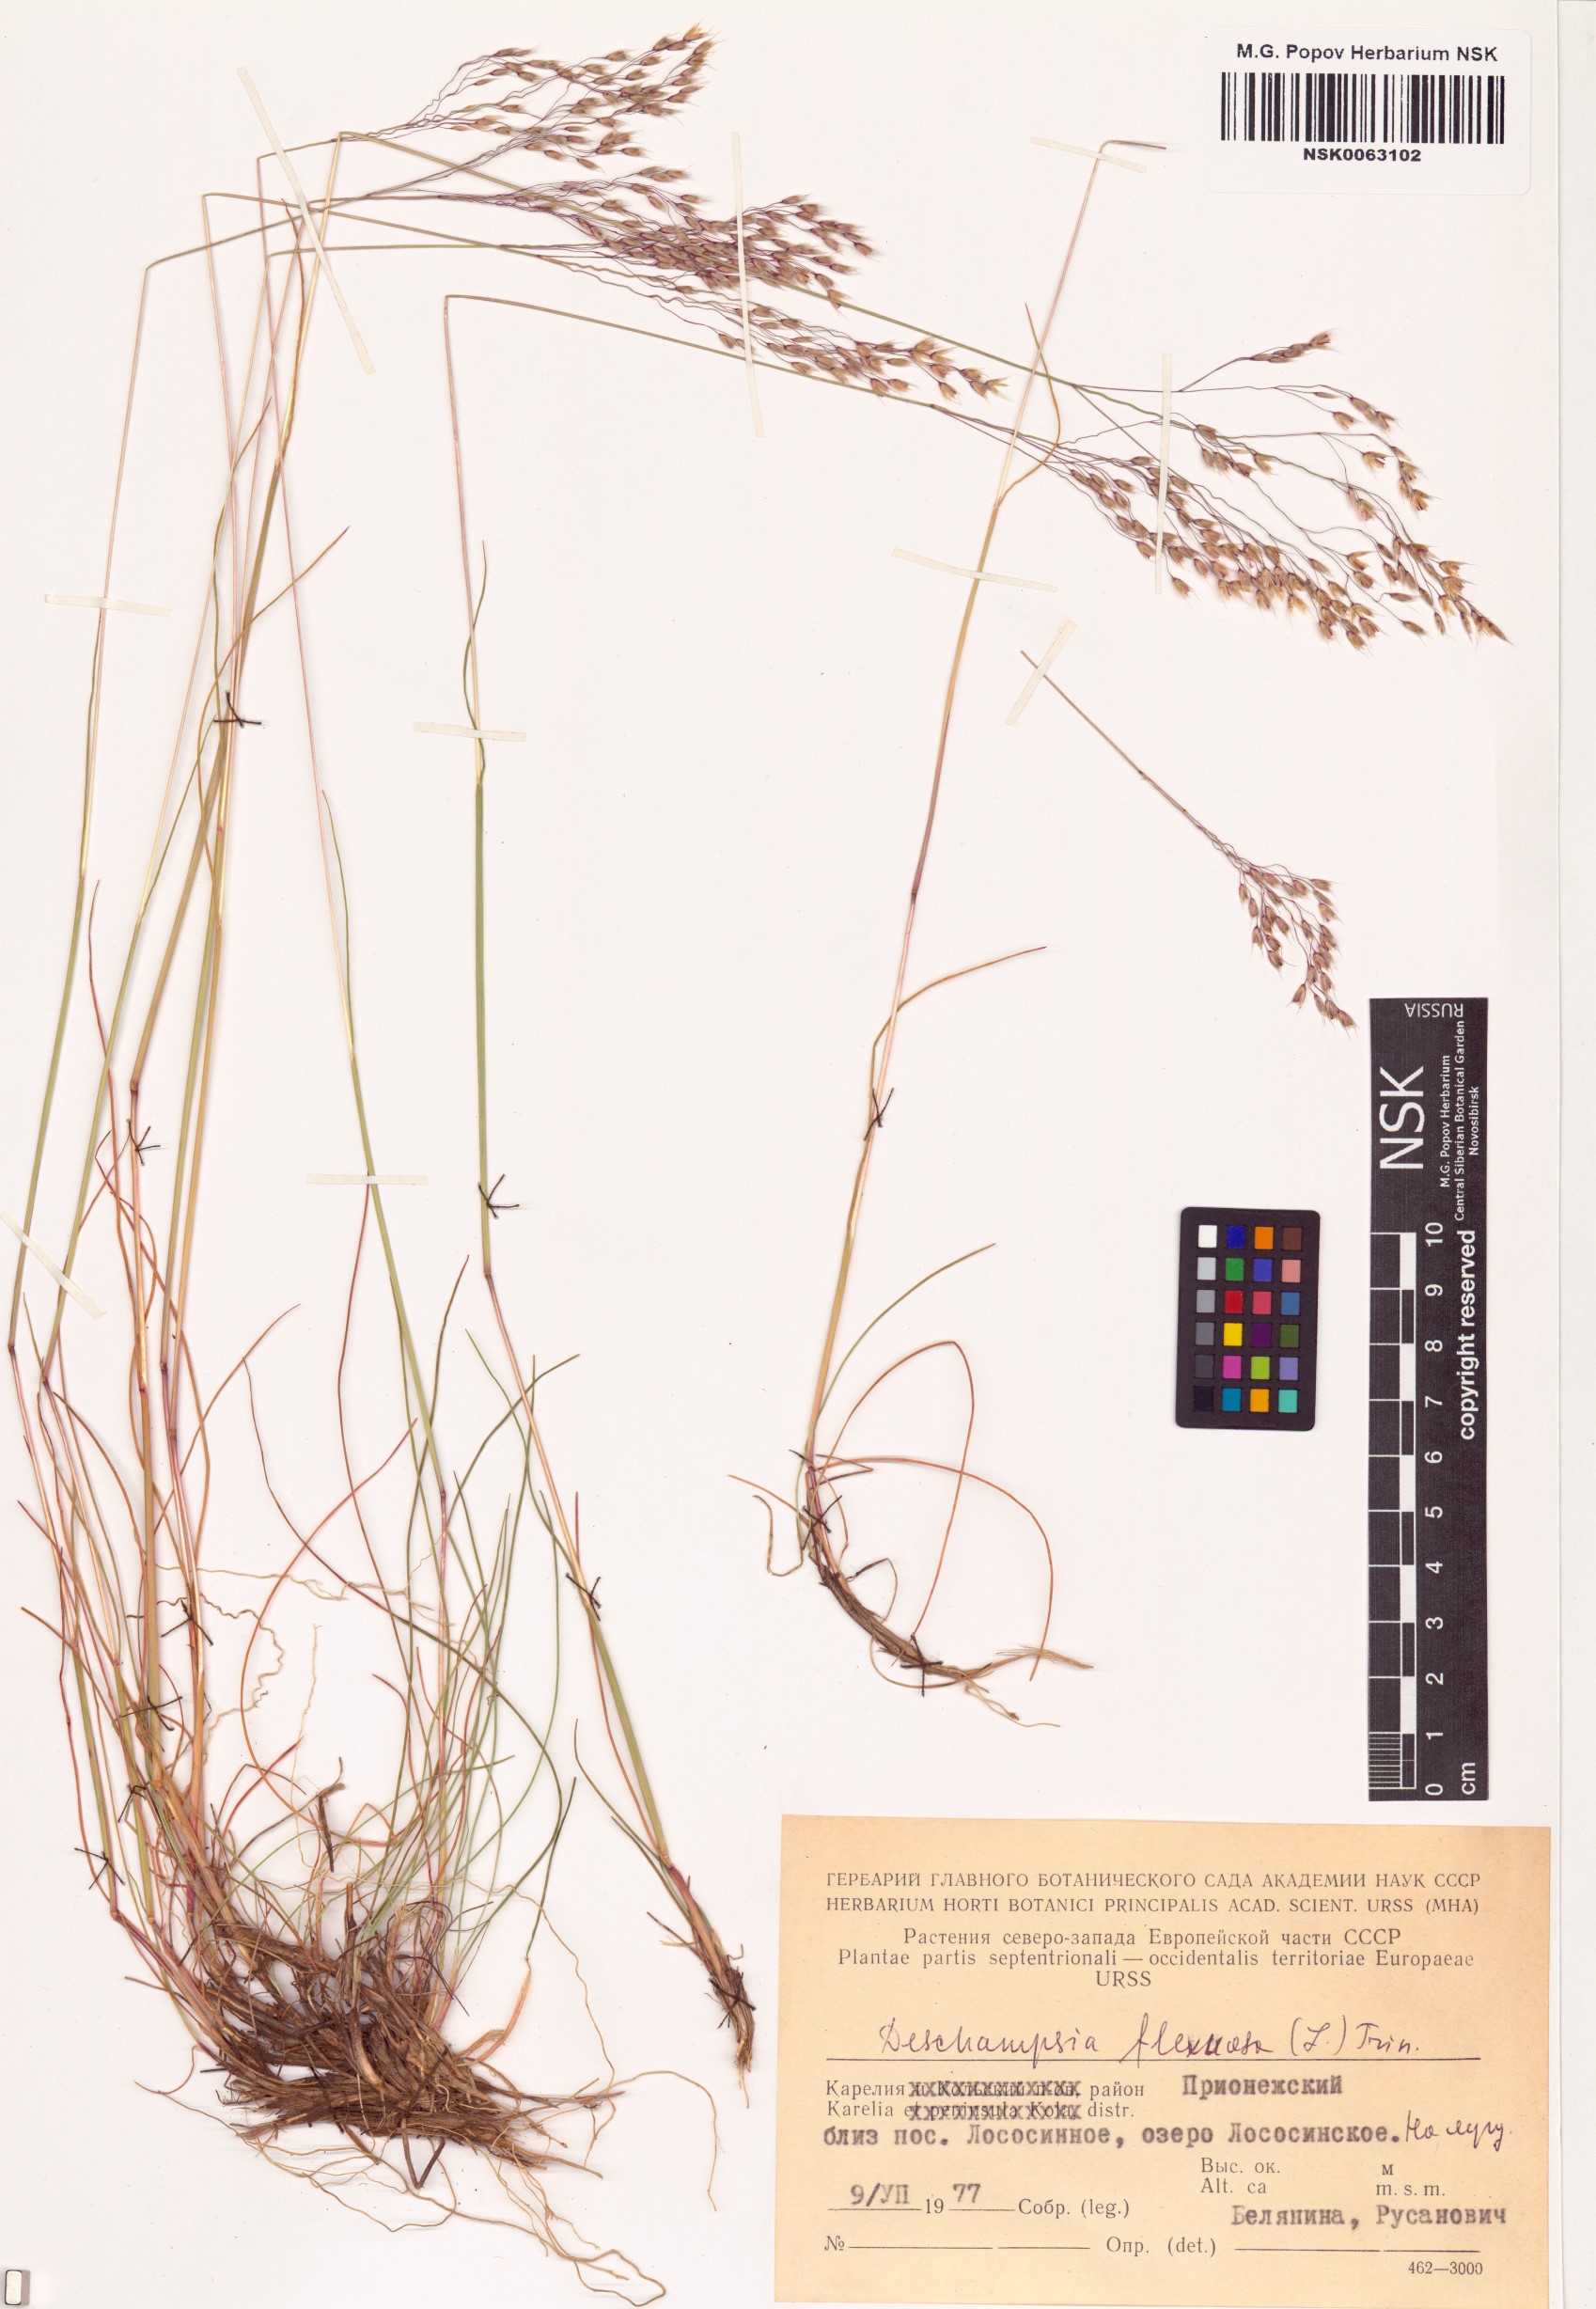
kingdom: Plantae
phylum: Tracheophyta
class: Liliopsida
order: Poales
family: Poaceae
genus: Avenella
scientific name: Avenella flexuosa
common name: Wavy hairgrass
